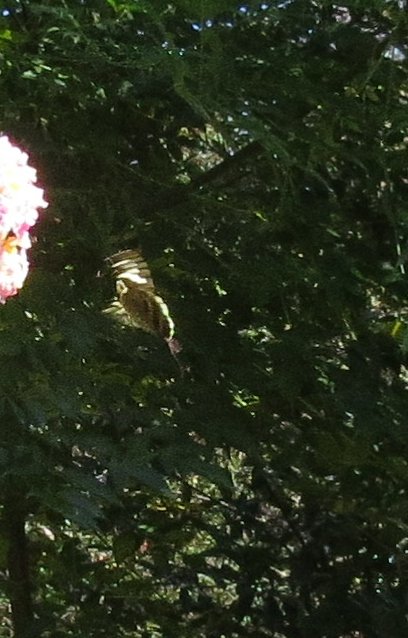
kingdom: Animalia
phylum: Arthropoda
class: Insecta
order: Lepidoptera
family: Hesperiidae
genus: Urbanus
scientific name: Urbanus proteus
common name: Long-tailed Skipper
